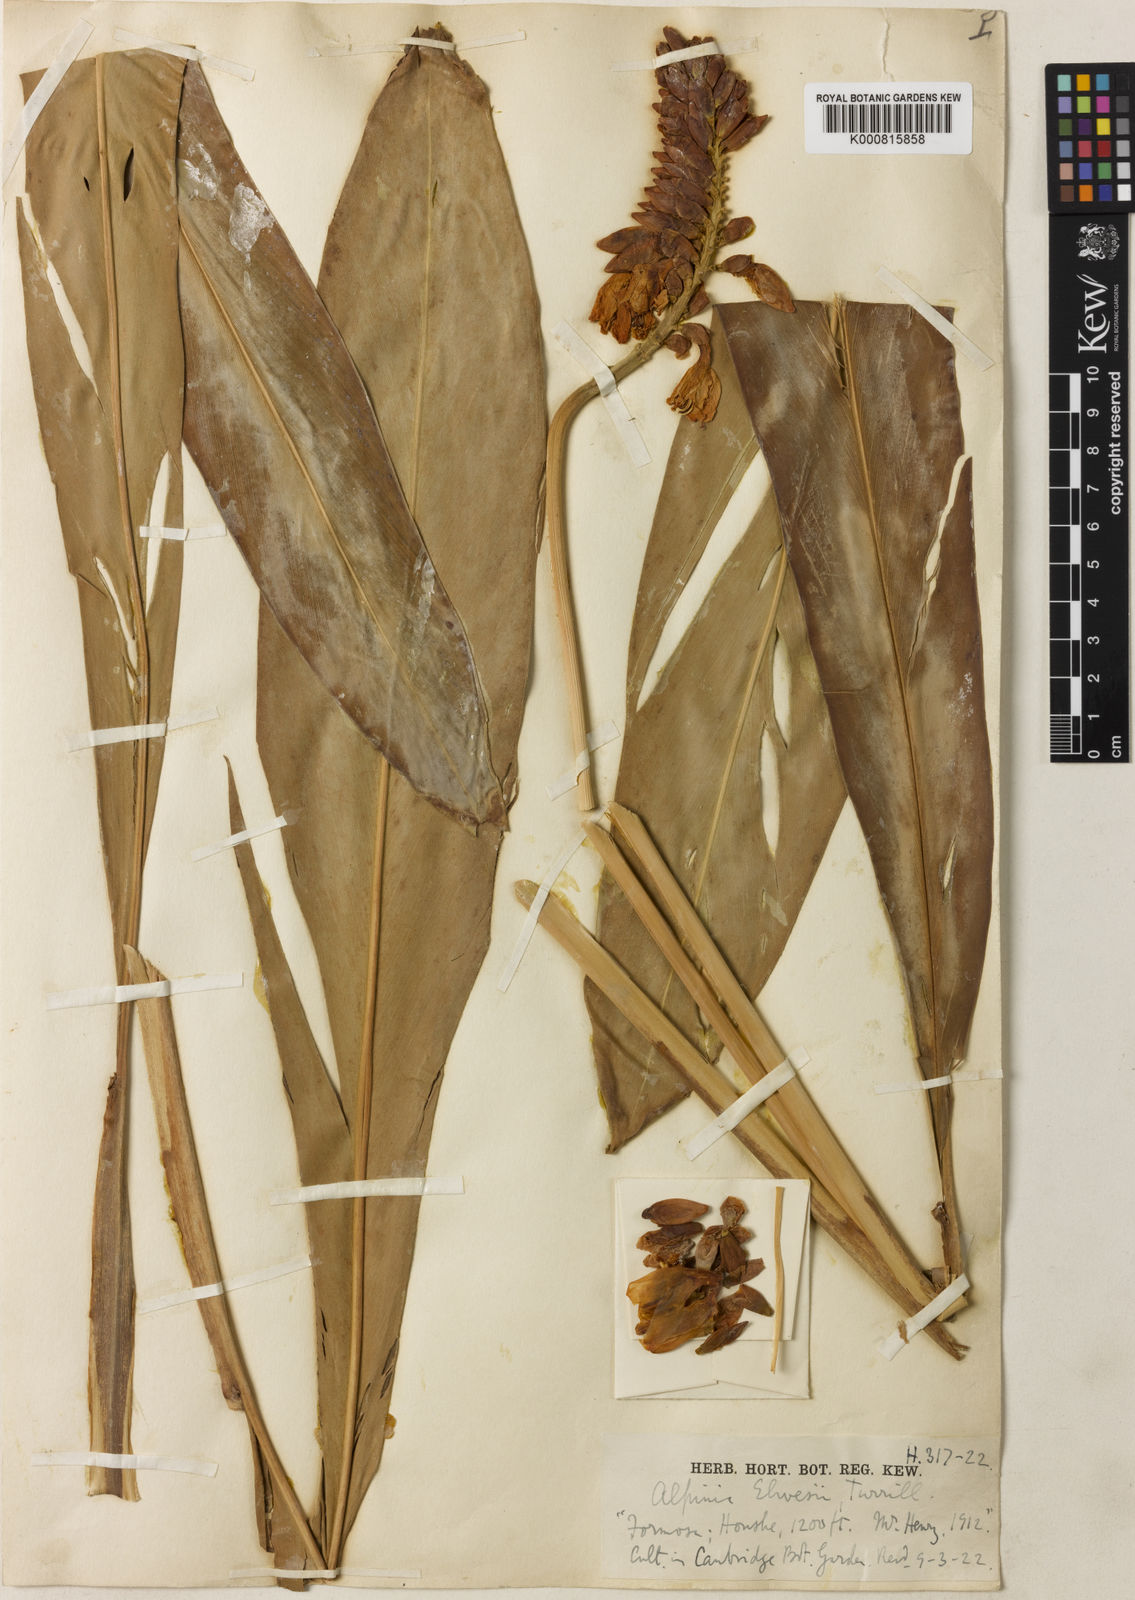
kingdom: Plantae
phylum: Tracheophyta
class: Liliopsida
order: Zingiberales
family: Zingiberaceae
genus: Alpinia
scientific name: Alpinia kawakamii
